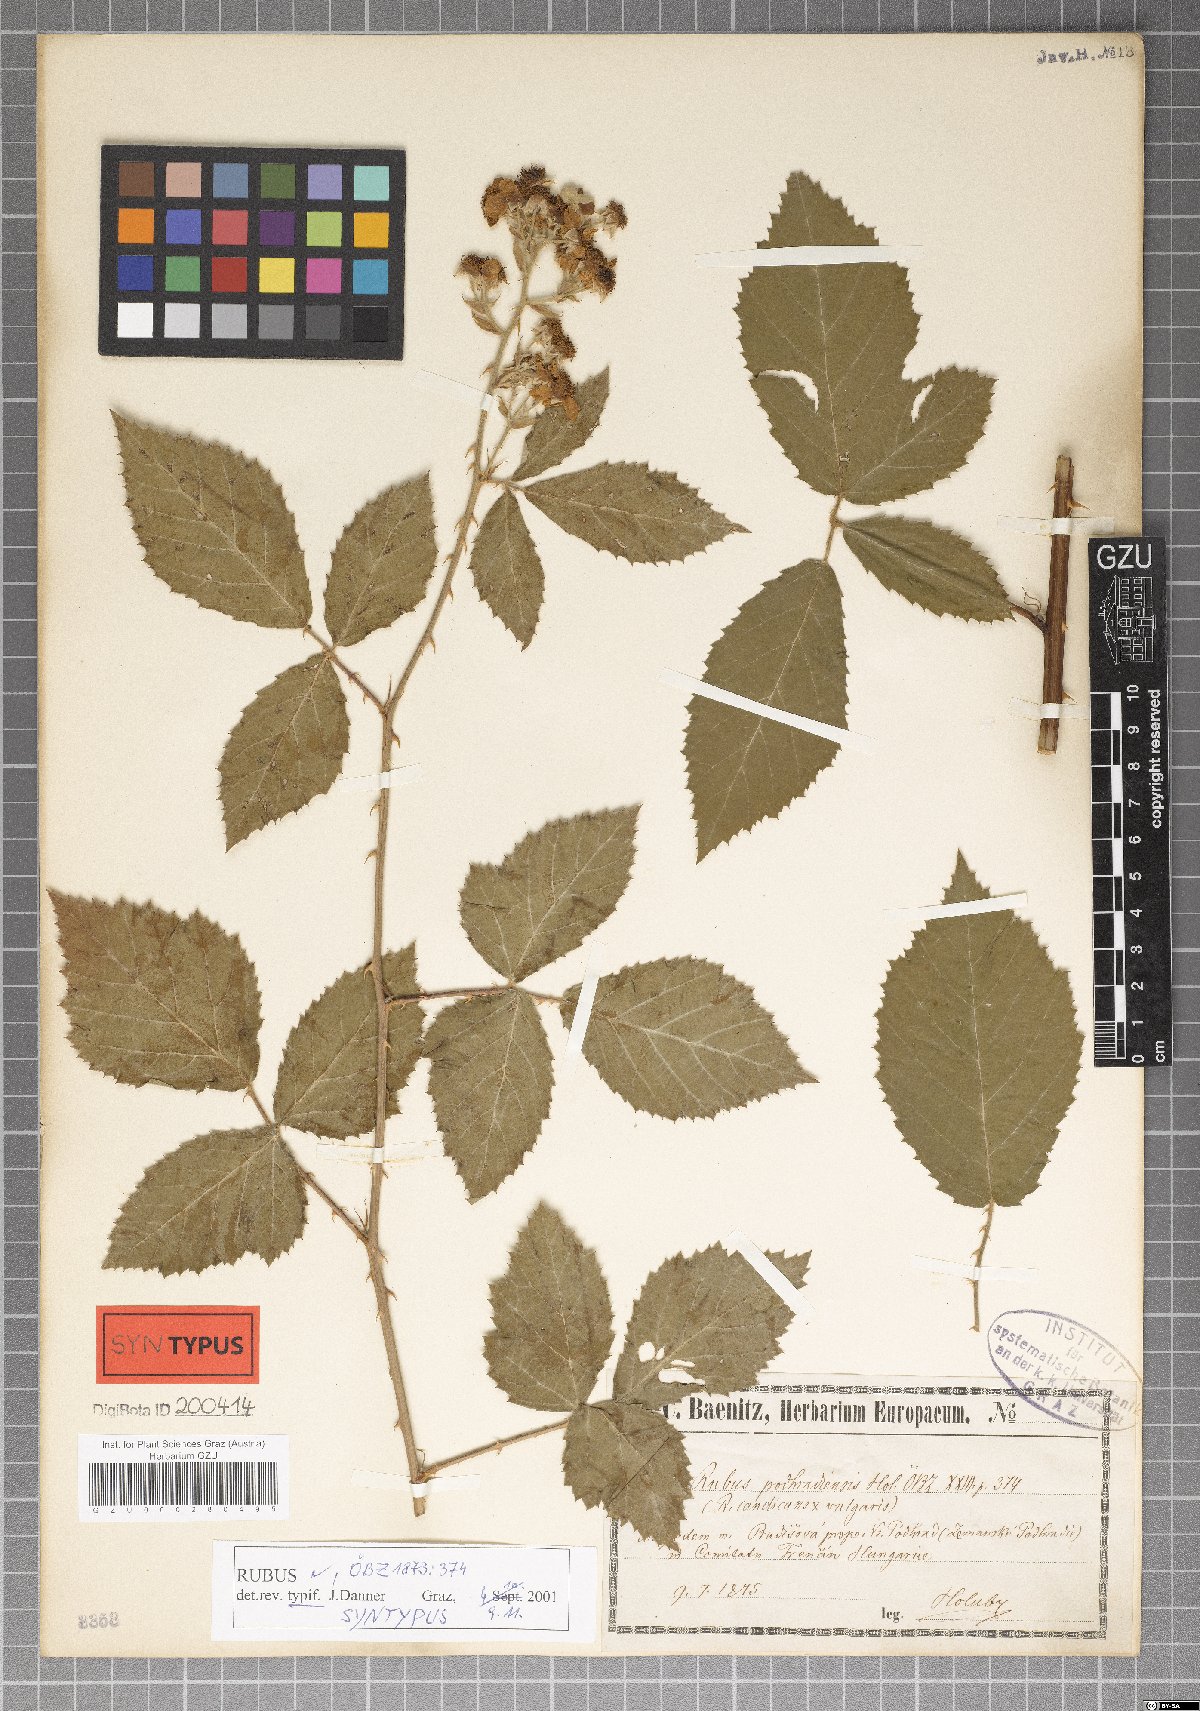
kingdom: Plantae
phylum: Tracheophyta
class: Magnoliopsida
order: Rosales
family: Rosaceae
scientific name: Rosaceae
